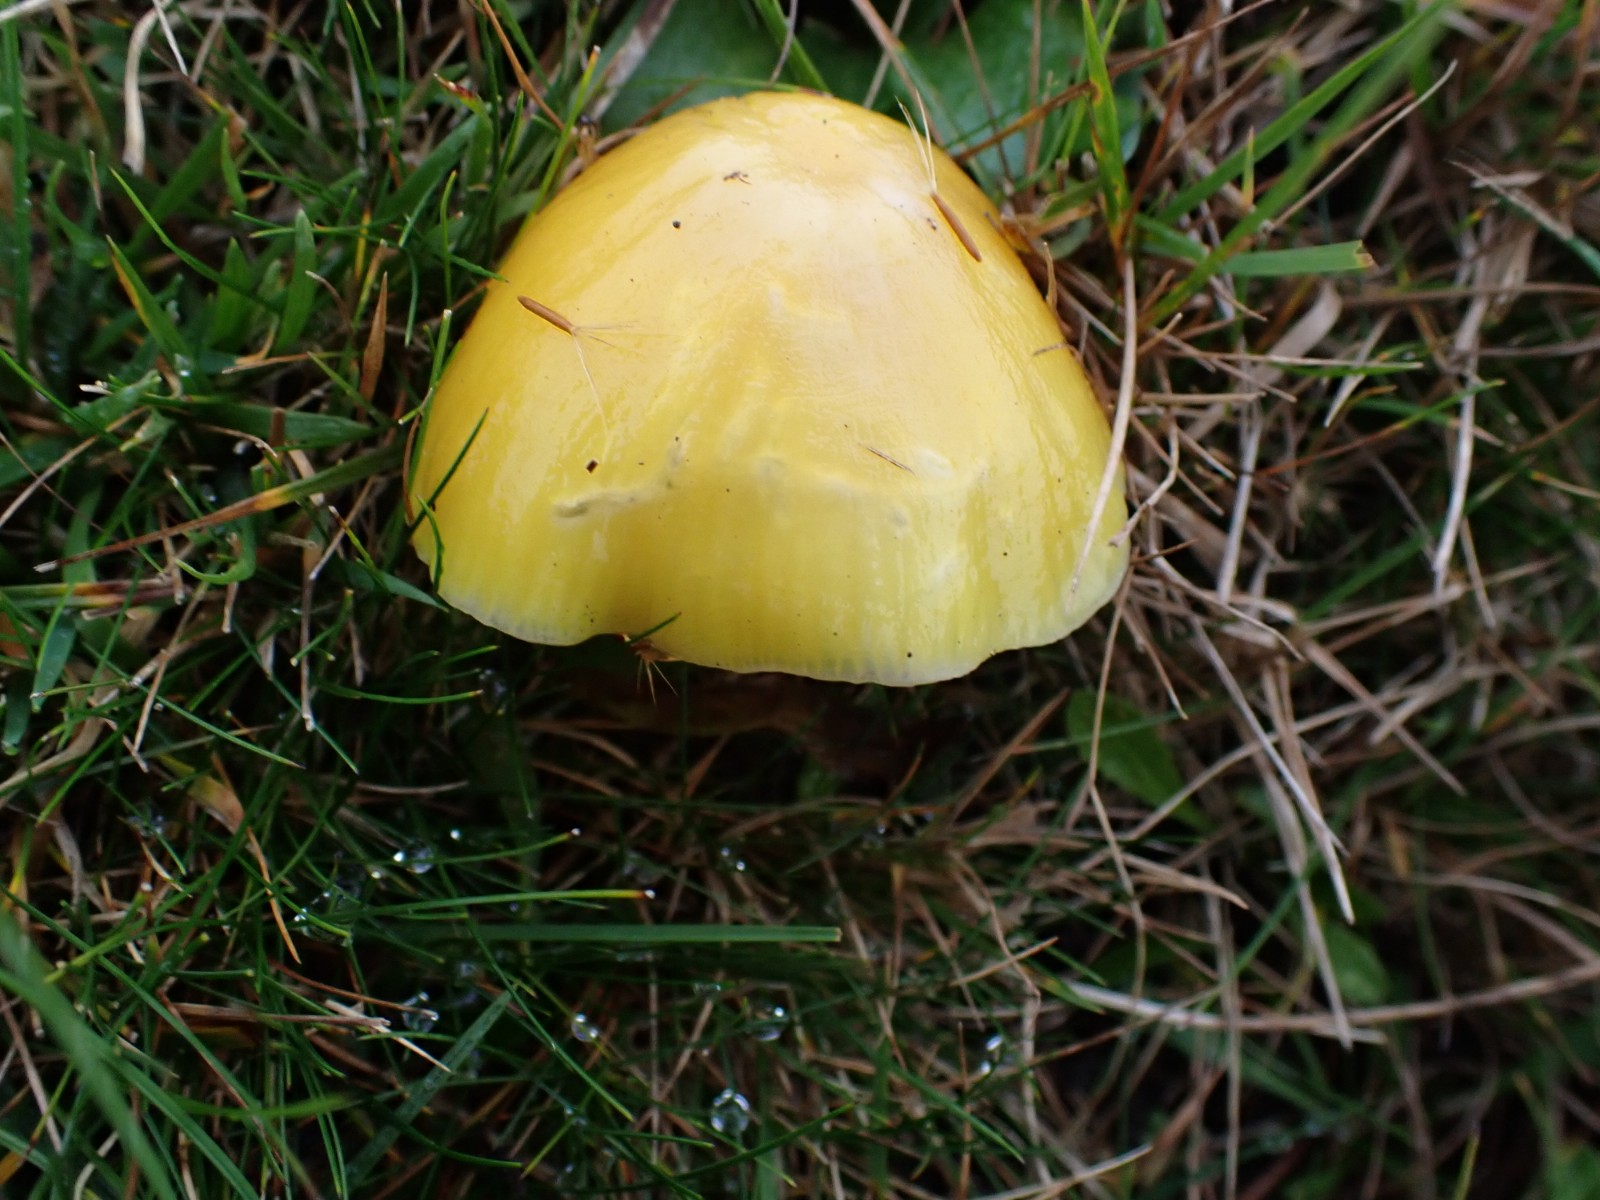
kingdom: Fungi
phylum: Basidiomycota
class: Agaricomycetes
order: Agaricales
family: Hygrophoraceae
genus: Hygrocybe
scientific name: Hygrocybe chlorophana
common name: gul vokshat
